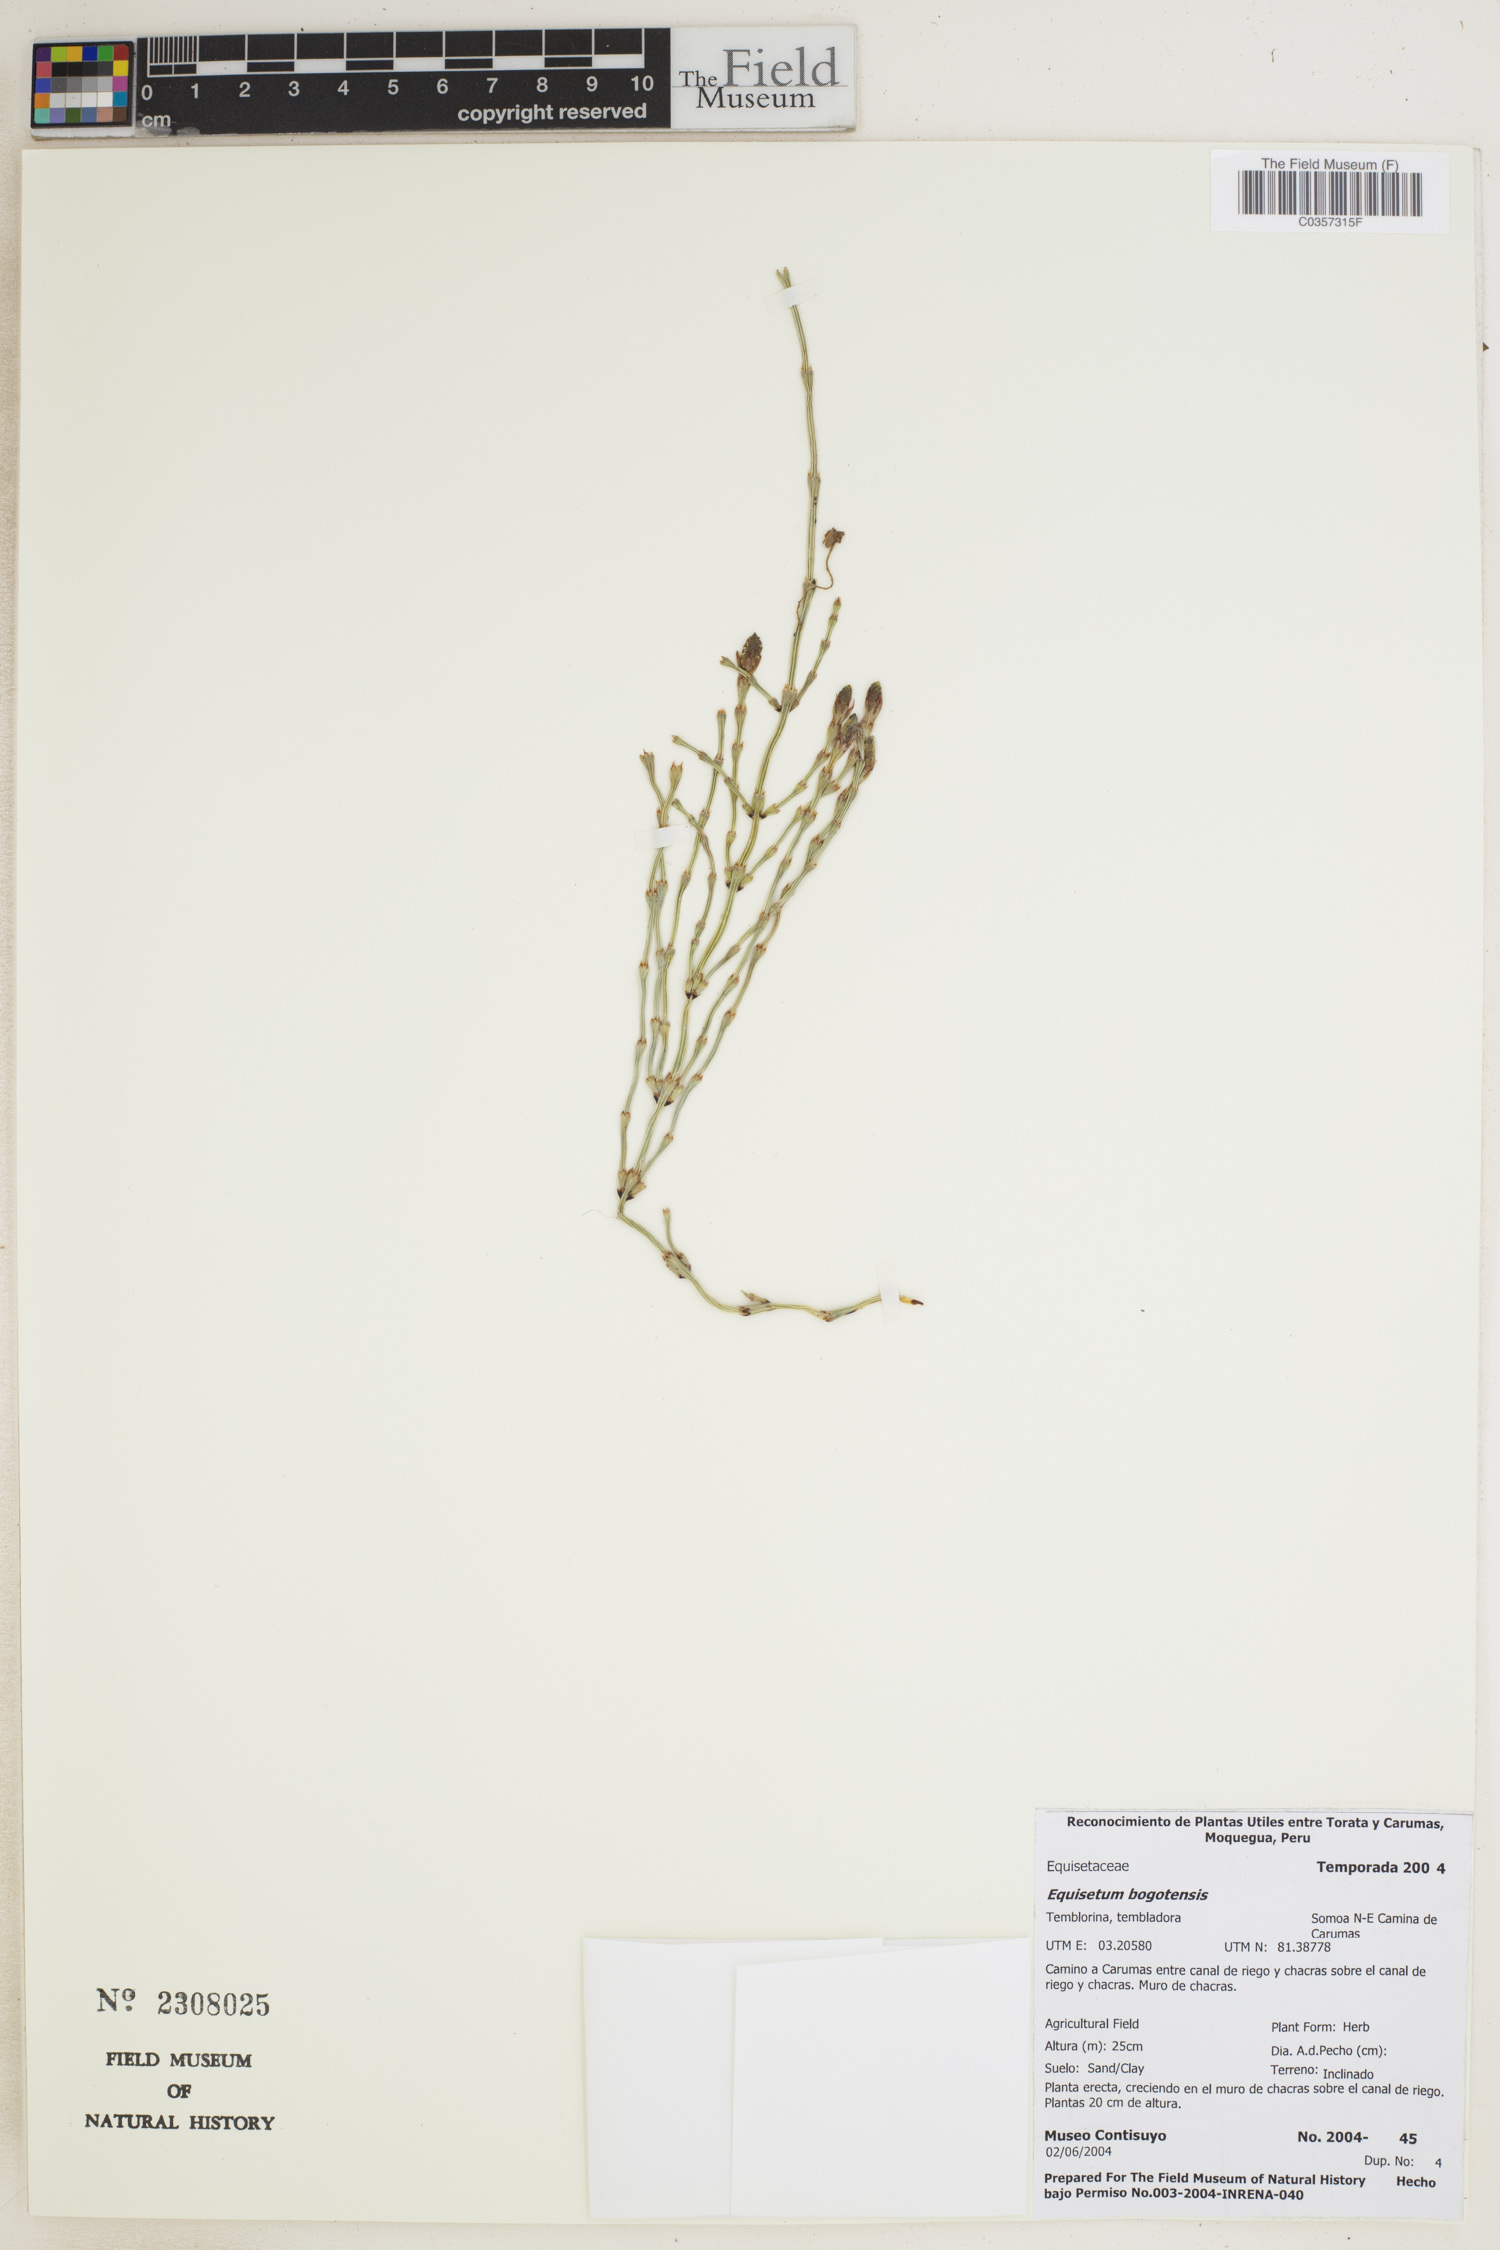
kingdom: Plantae
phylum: Tracheophyta
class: Polypodiopsida
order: Equisetales
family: Equisetaceae
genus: Equisetum
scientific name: Equisetum bogotense
